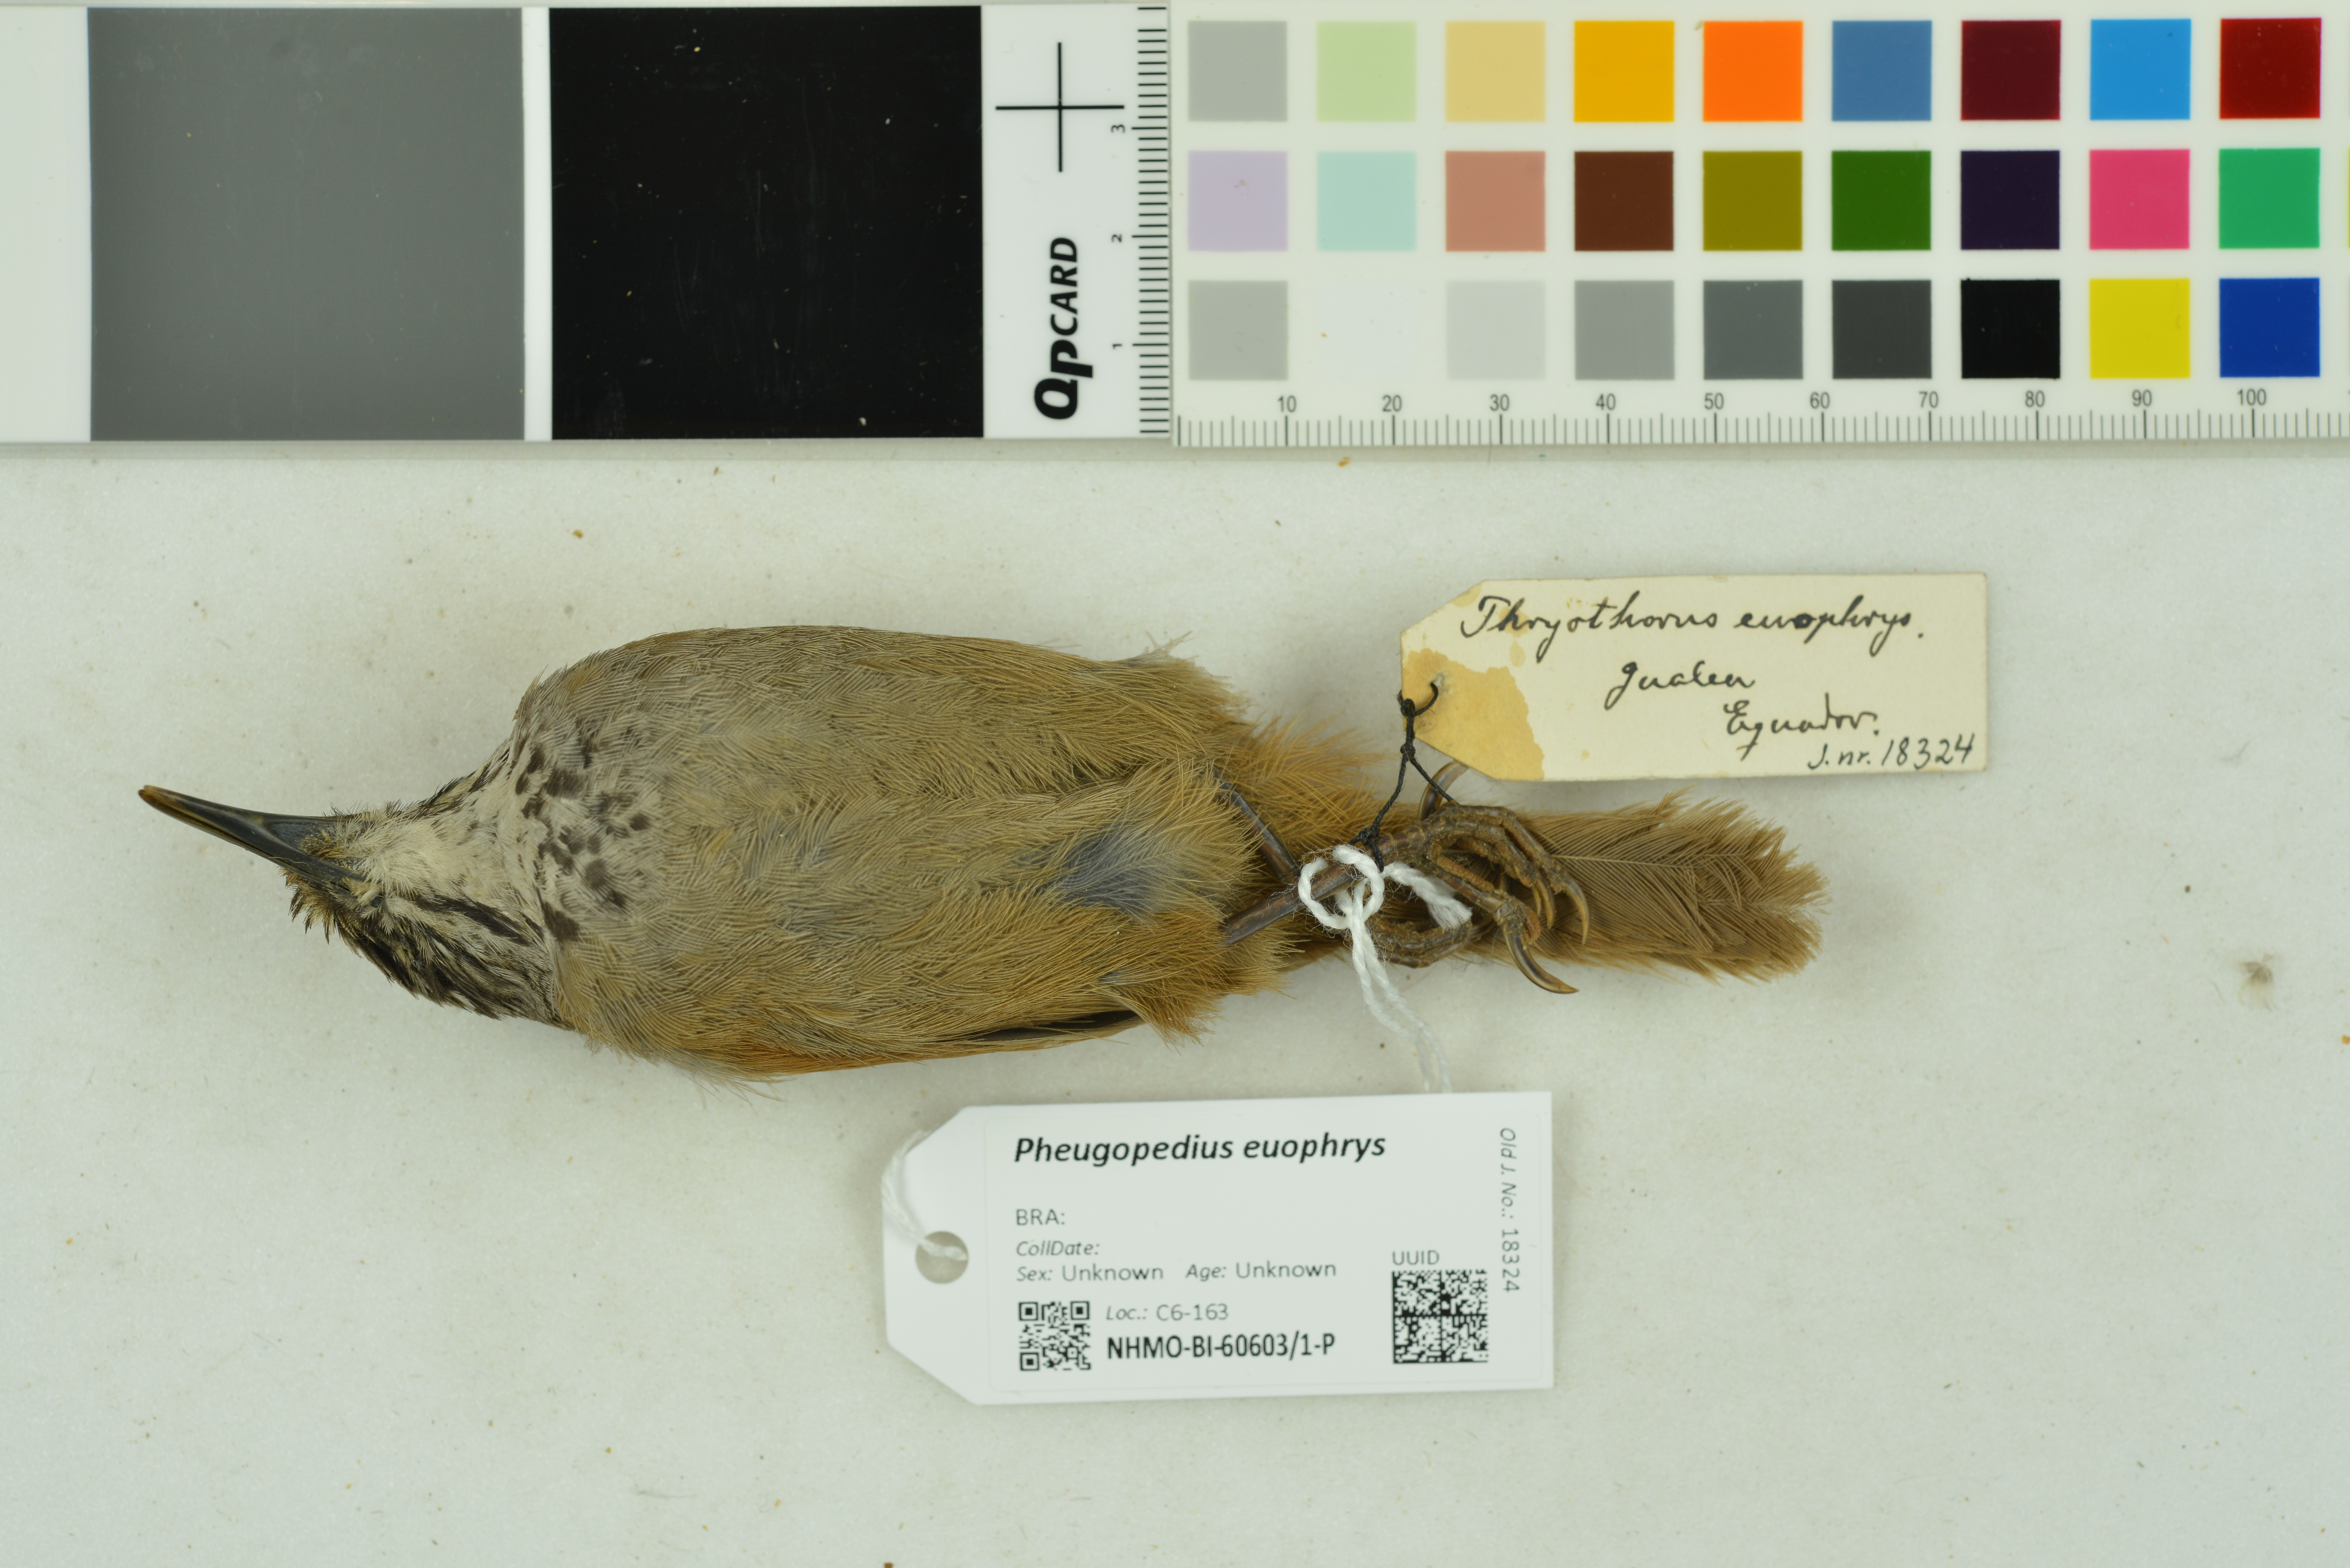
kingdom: Animalia
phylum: Chordata
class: Aves
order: Passeriformes
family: Troglodytidae
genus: Pheugopedius
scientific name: Pheugopedius euophrys
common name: Plain-tailed wren
